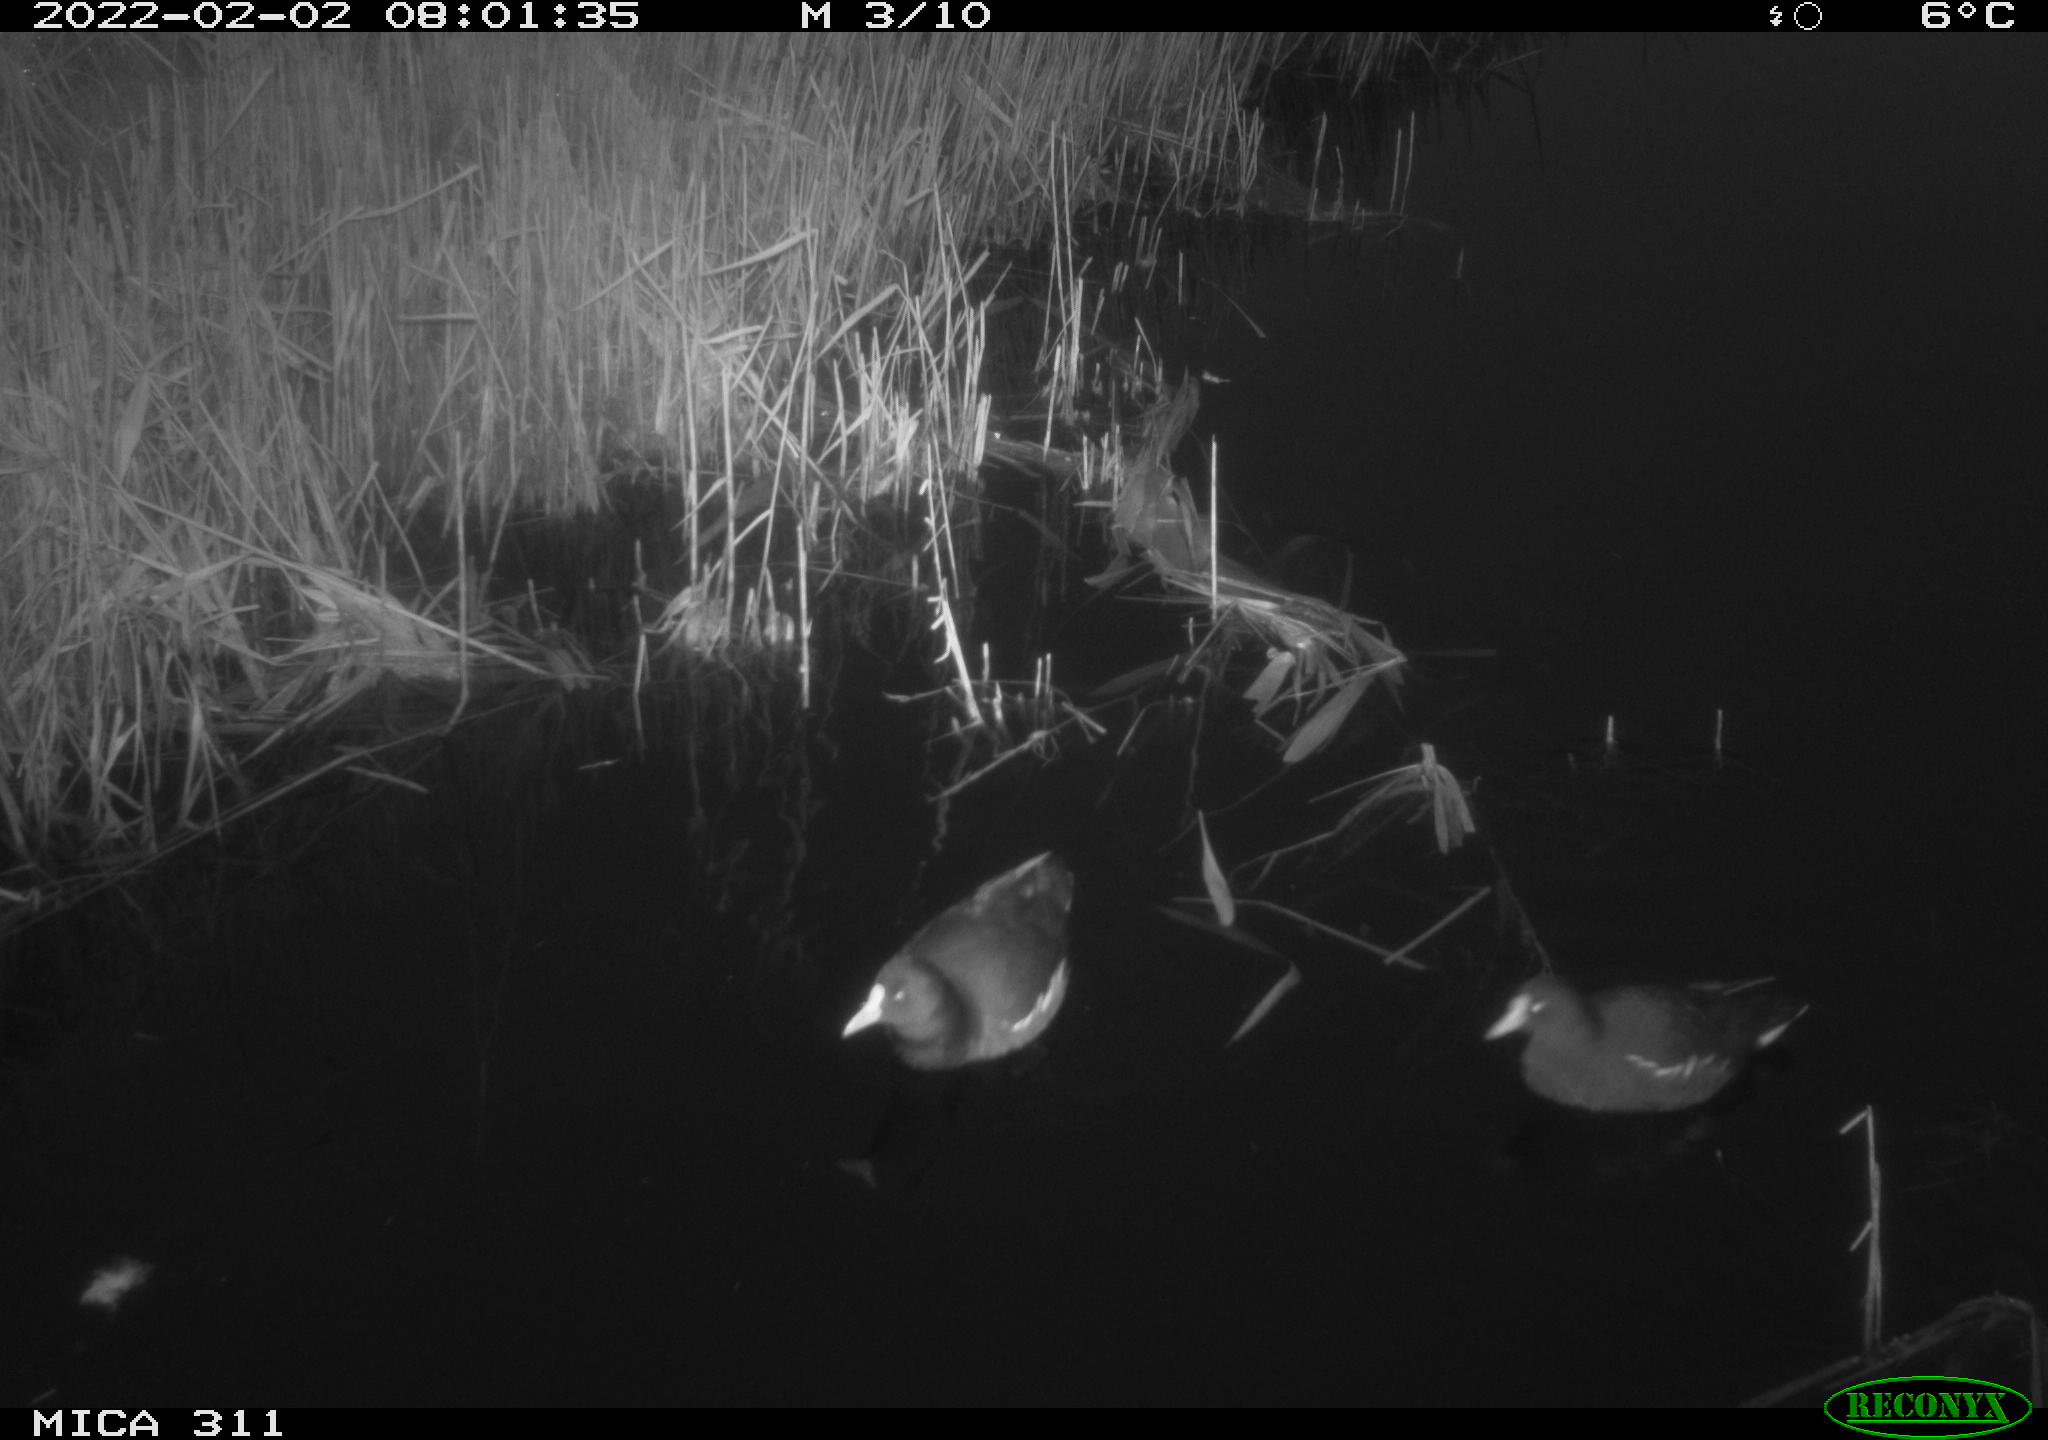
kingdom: Animalia
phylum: Chordata
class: Aves
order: Gruiformes
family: Rallidae
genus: Gallinula
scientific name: Gallinula chloropus
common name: Common moorhen
